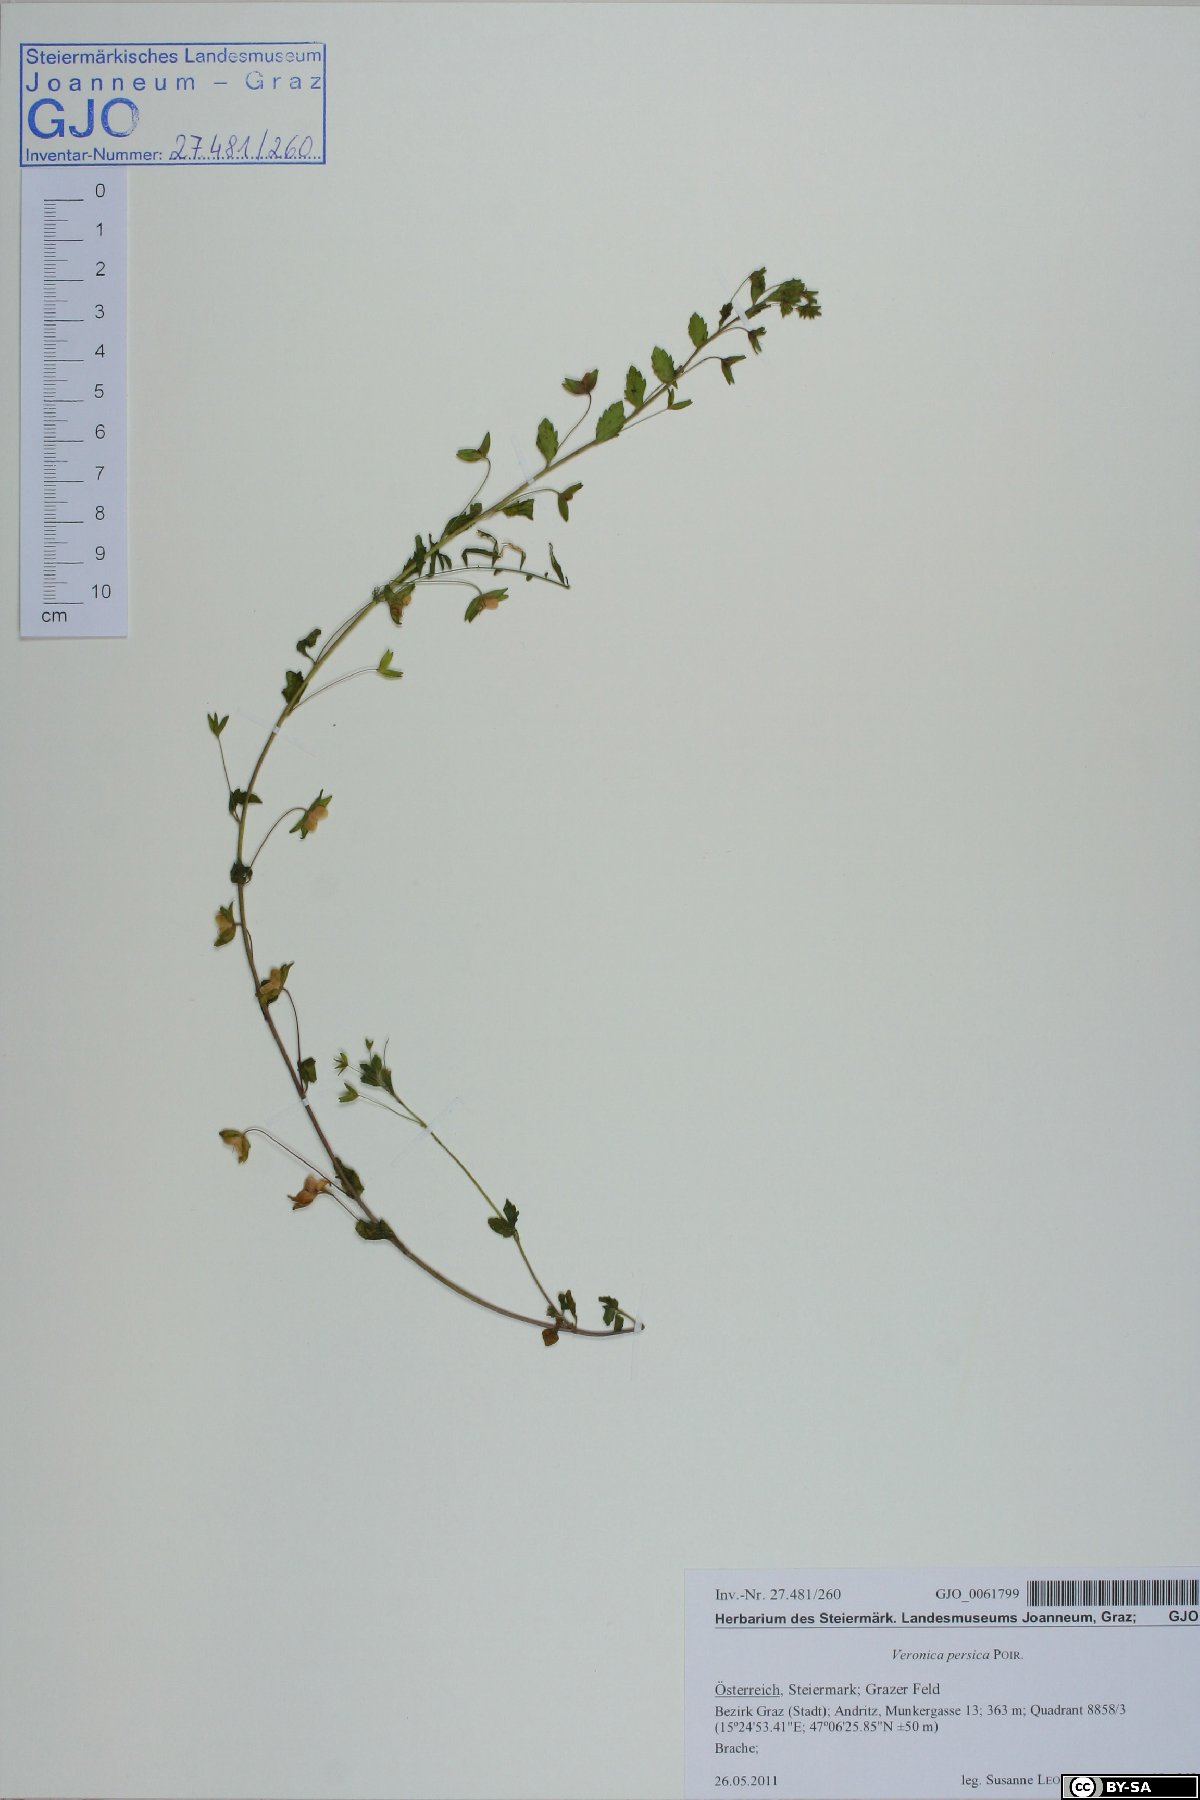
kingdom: Plantae
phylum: Tracheophyta
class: Magnoliopsida
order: Lamiales
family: Plantaginaceae
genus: Veronica
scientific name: Veronica persica
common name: Common field-speedwell
